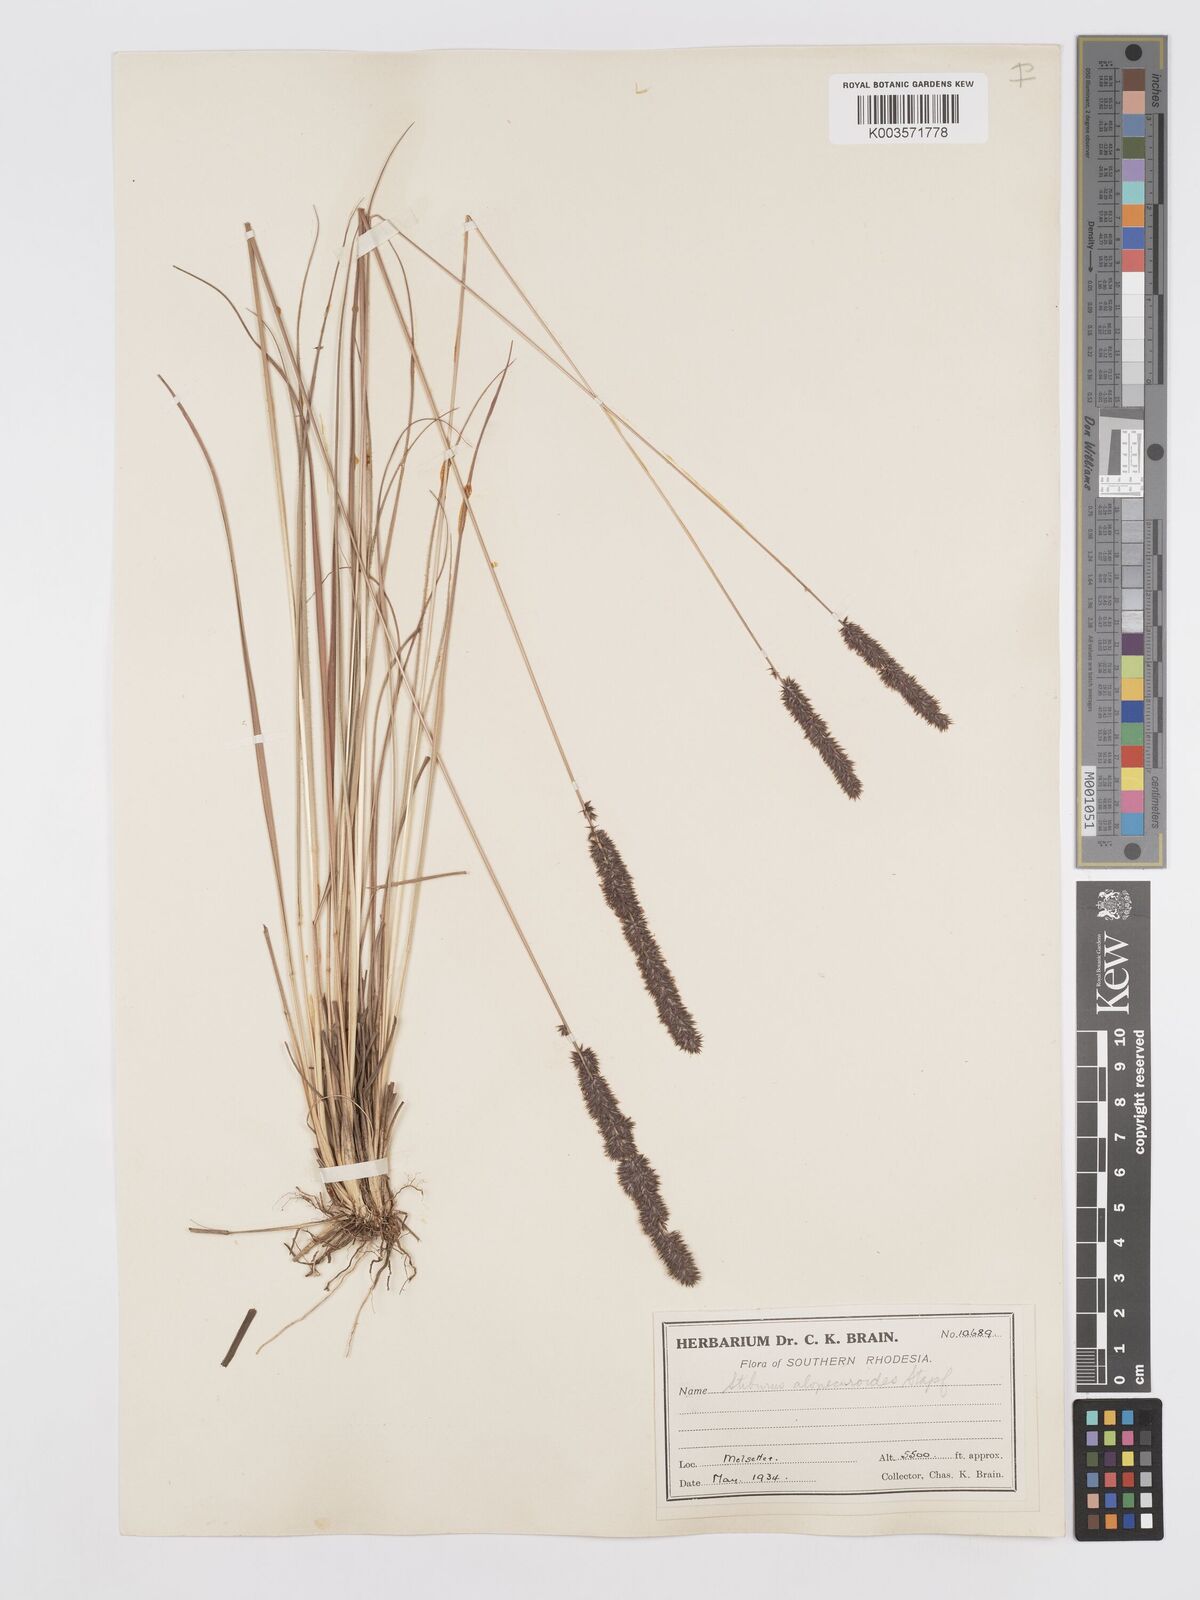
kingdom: Plantae
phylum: Tracheophyta
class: Liliopsida
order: Poales
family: Poaceae
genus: Stiburus
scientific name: Stiburus alopecuroides
